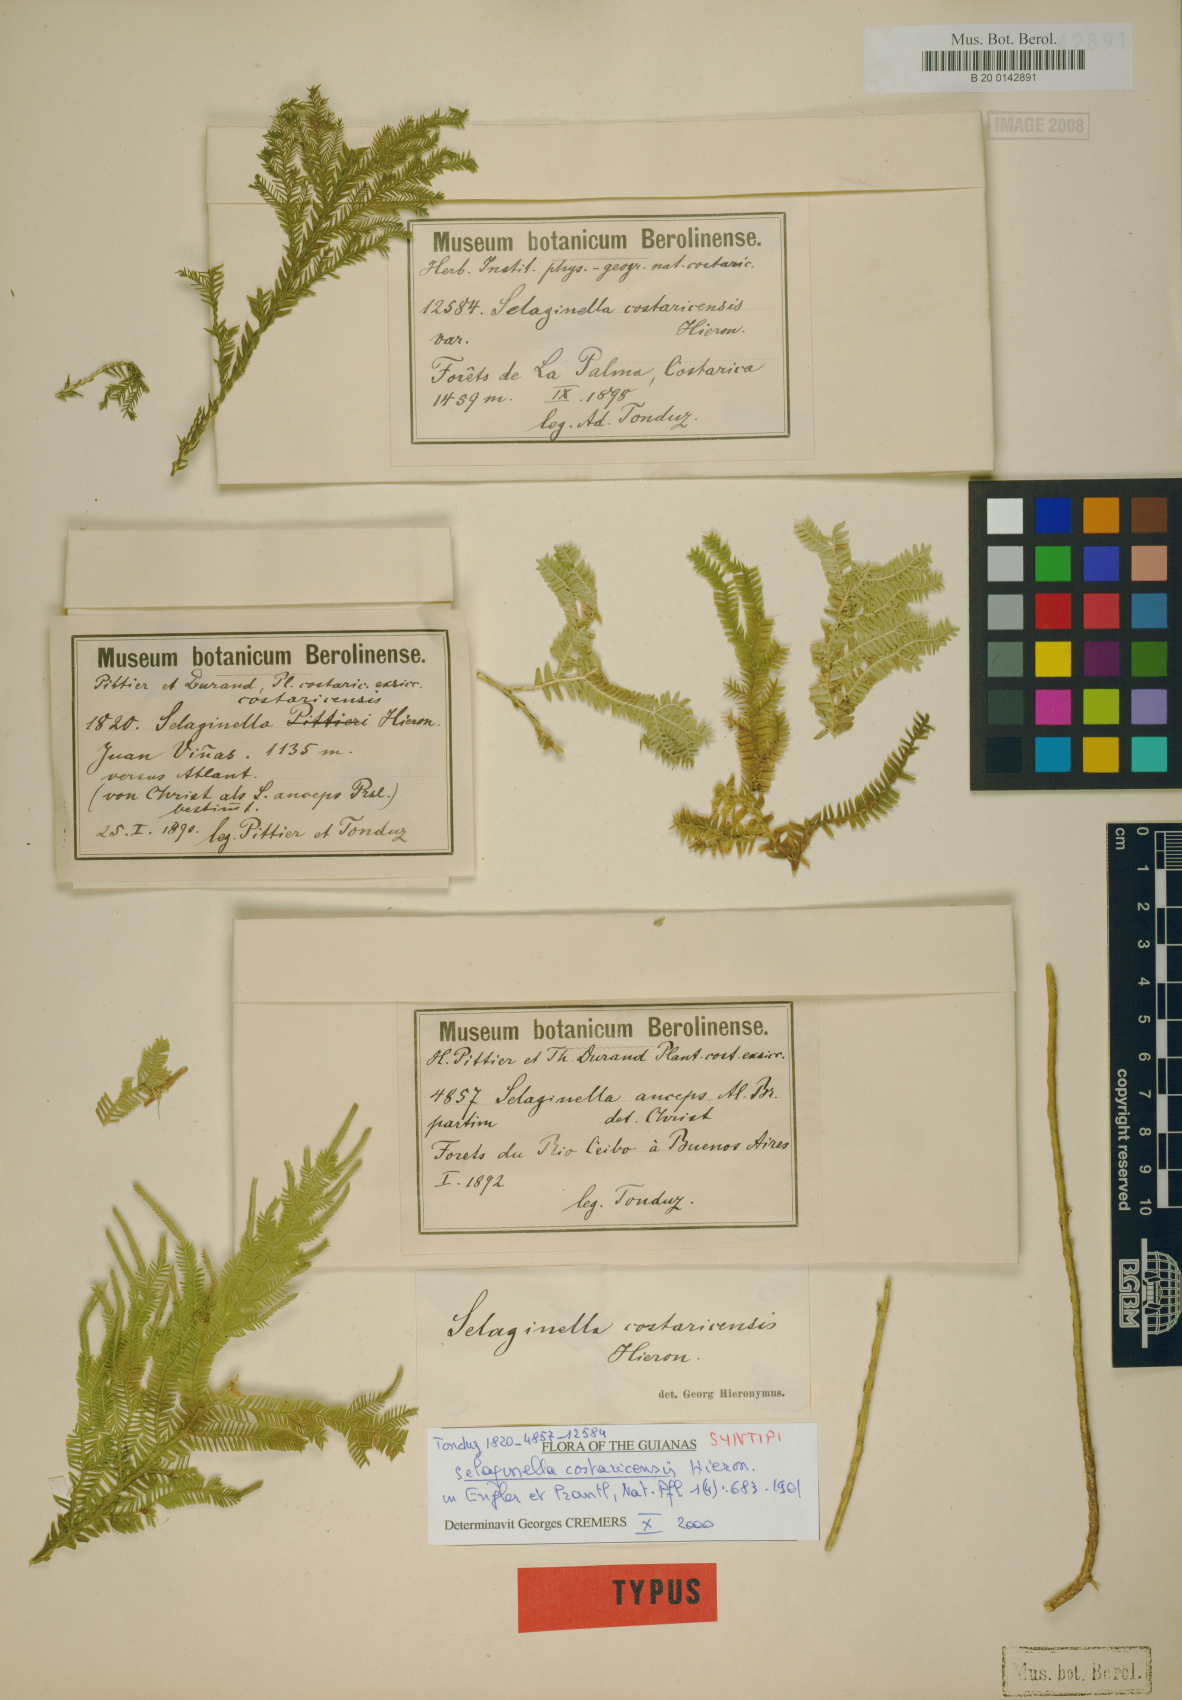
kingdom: Plantae
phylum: Tracheophyta
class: Lycopodiopsida
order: Selaginellales
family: Selaginellaceae
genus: Selaginella
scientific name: Selaginella oaxacana
